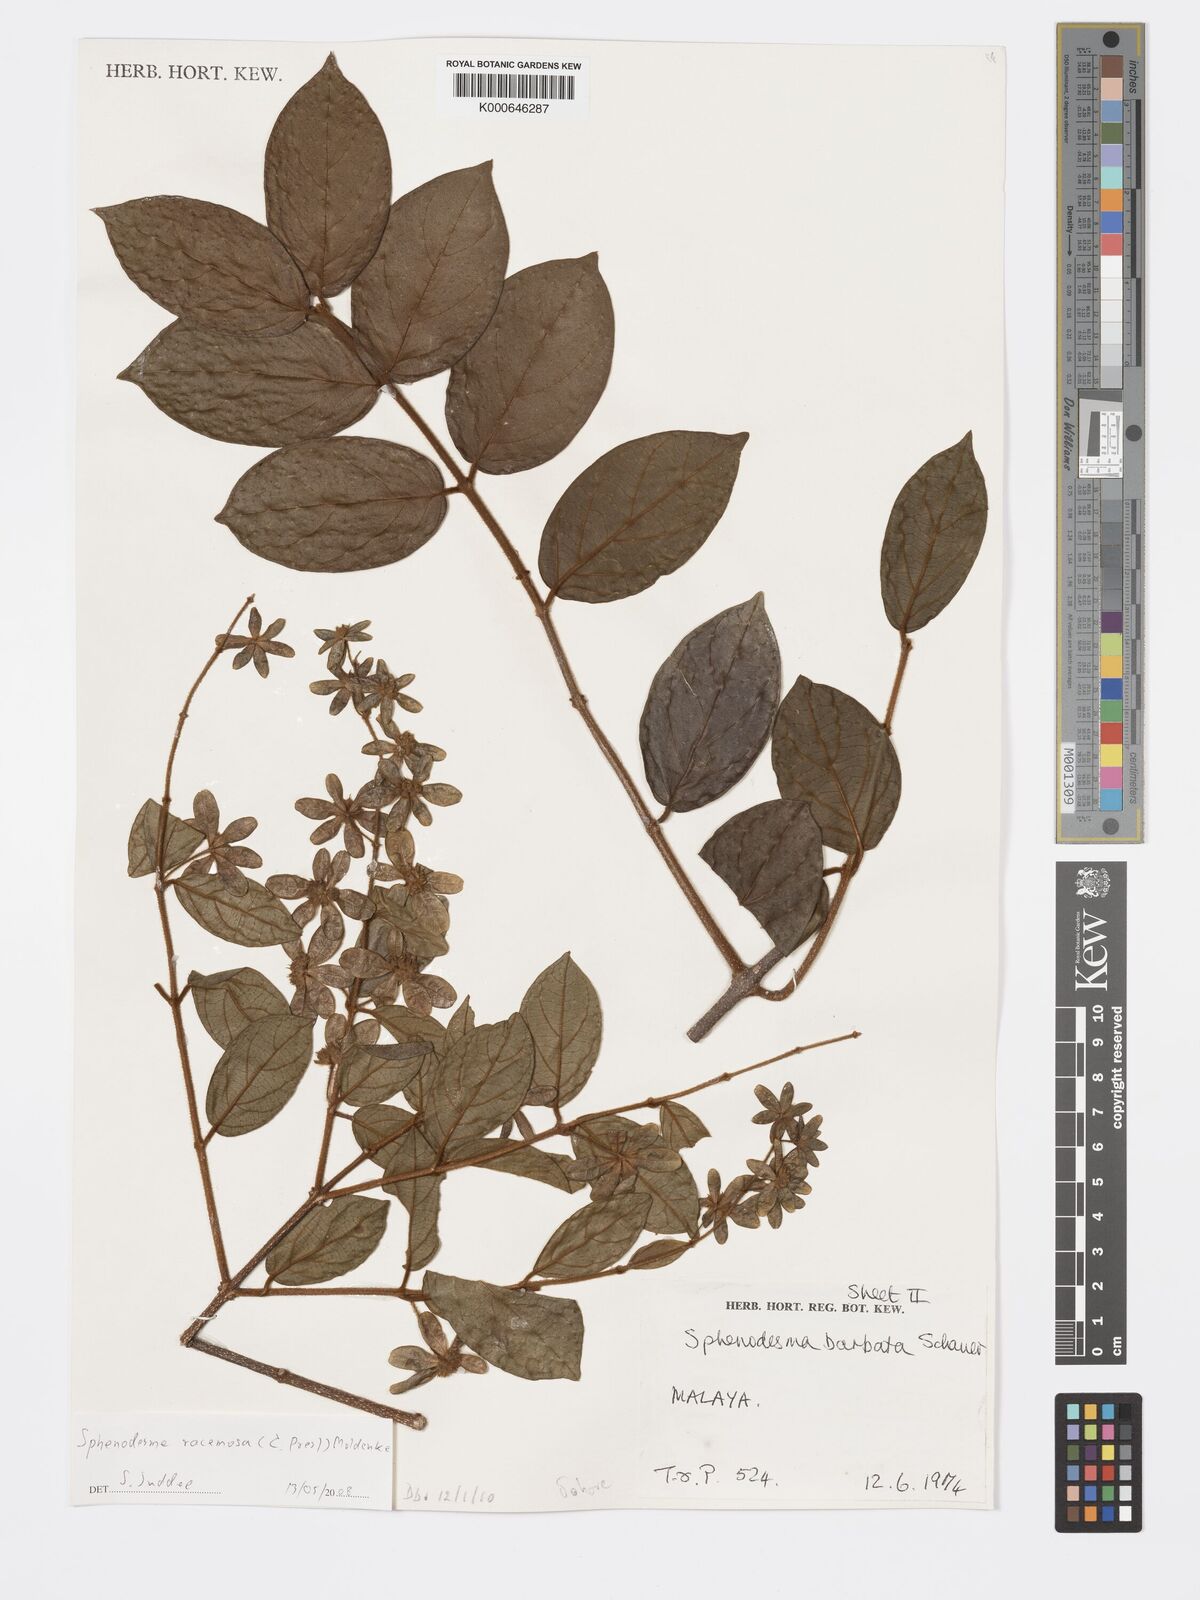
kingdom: Plantae
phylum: Tracheophyta
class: Magnoliopsida
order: Lamiales
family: Lamiaceae
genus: Sphenodesme
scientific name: Sphenodesme racemosa
